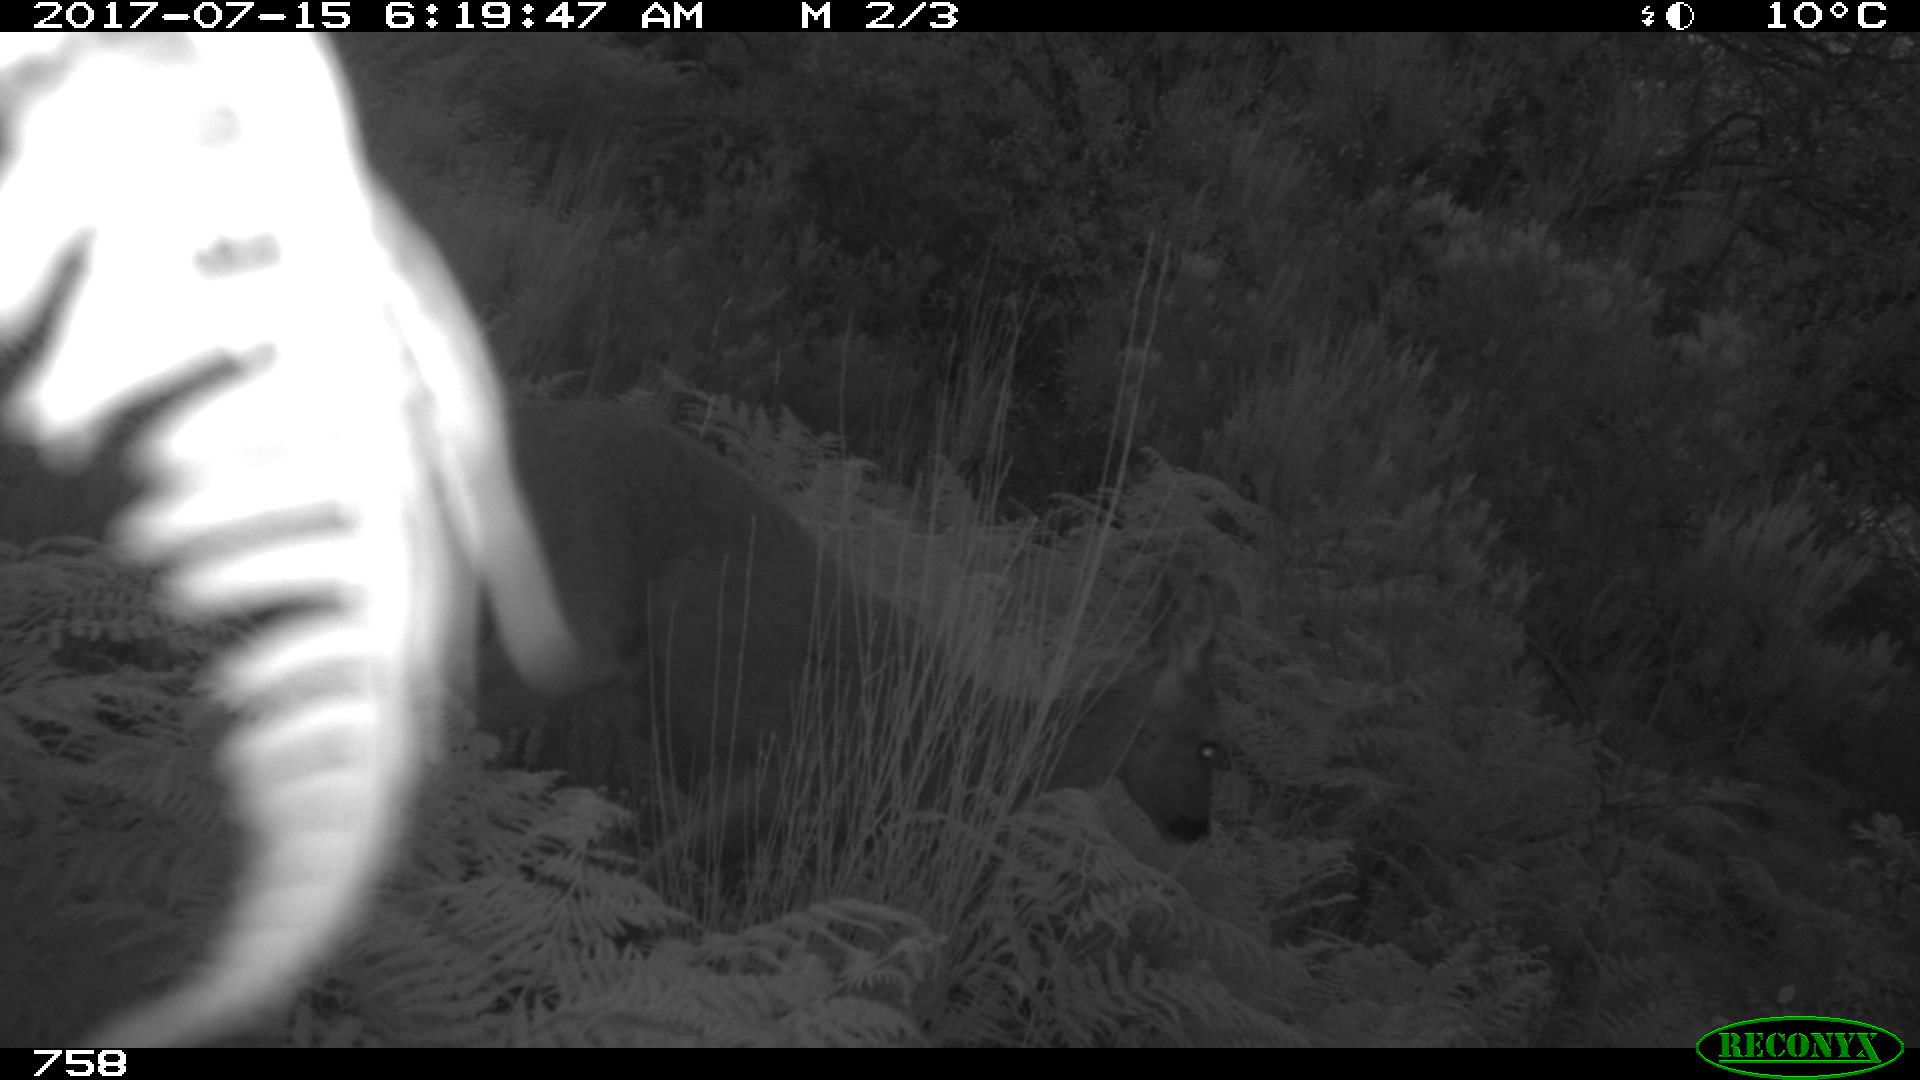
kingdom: Animalia
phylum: Chordata
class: Mammalia
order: Artiodactyla
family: Cervidae
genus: Capreolus
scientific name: Capreolus capreolus
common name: Western roe deer
